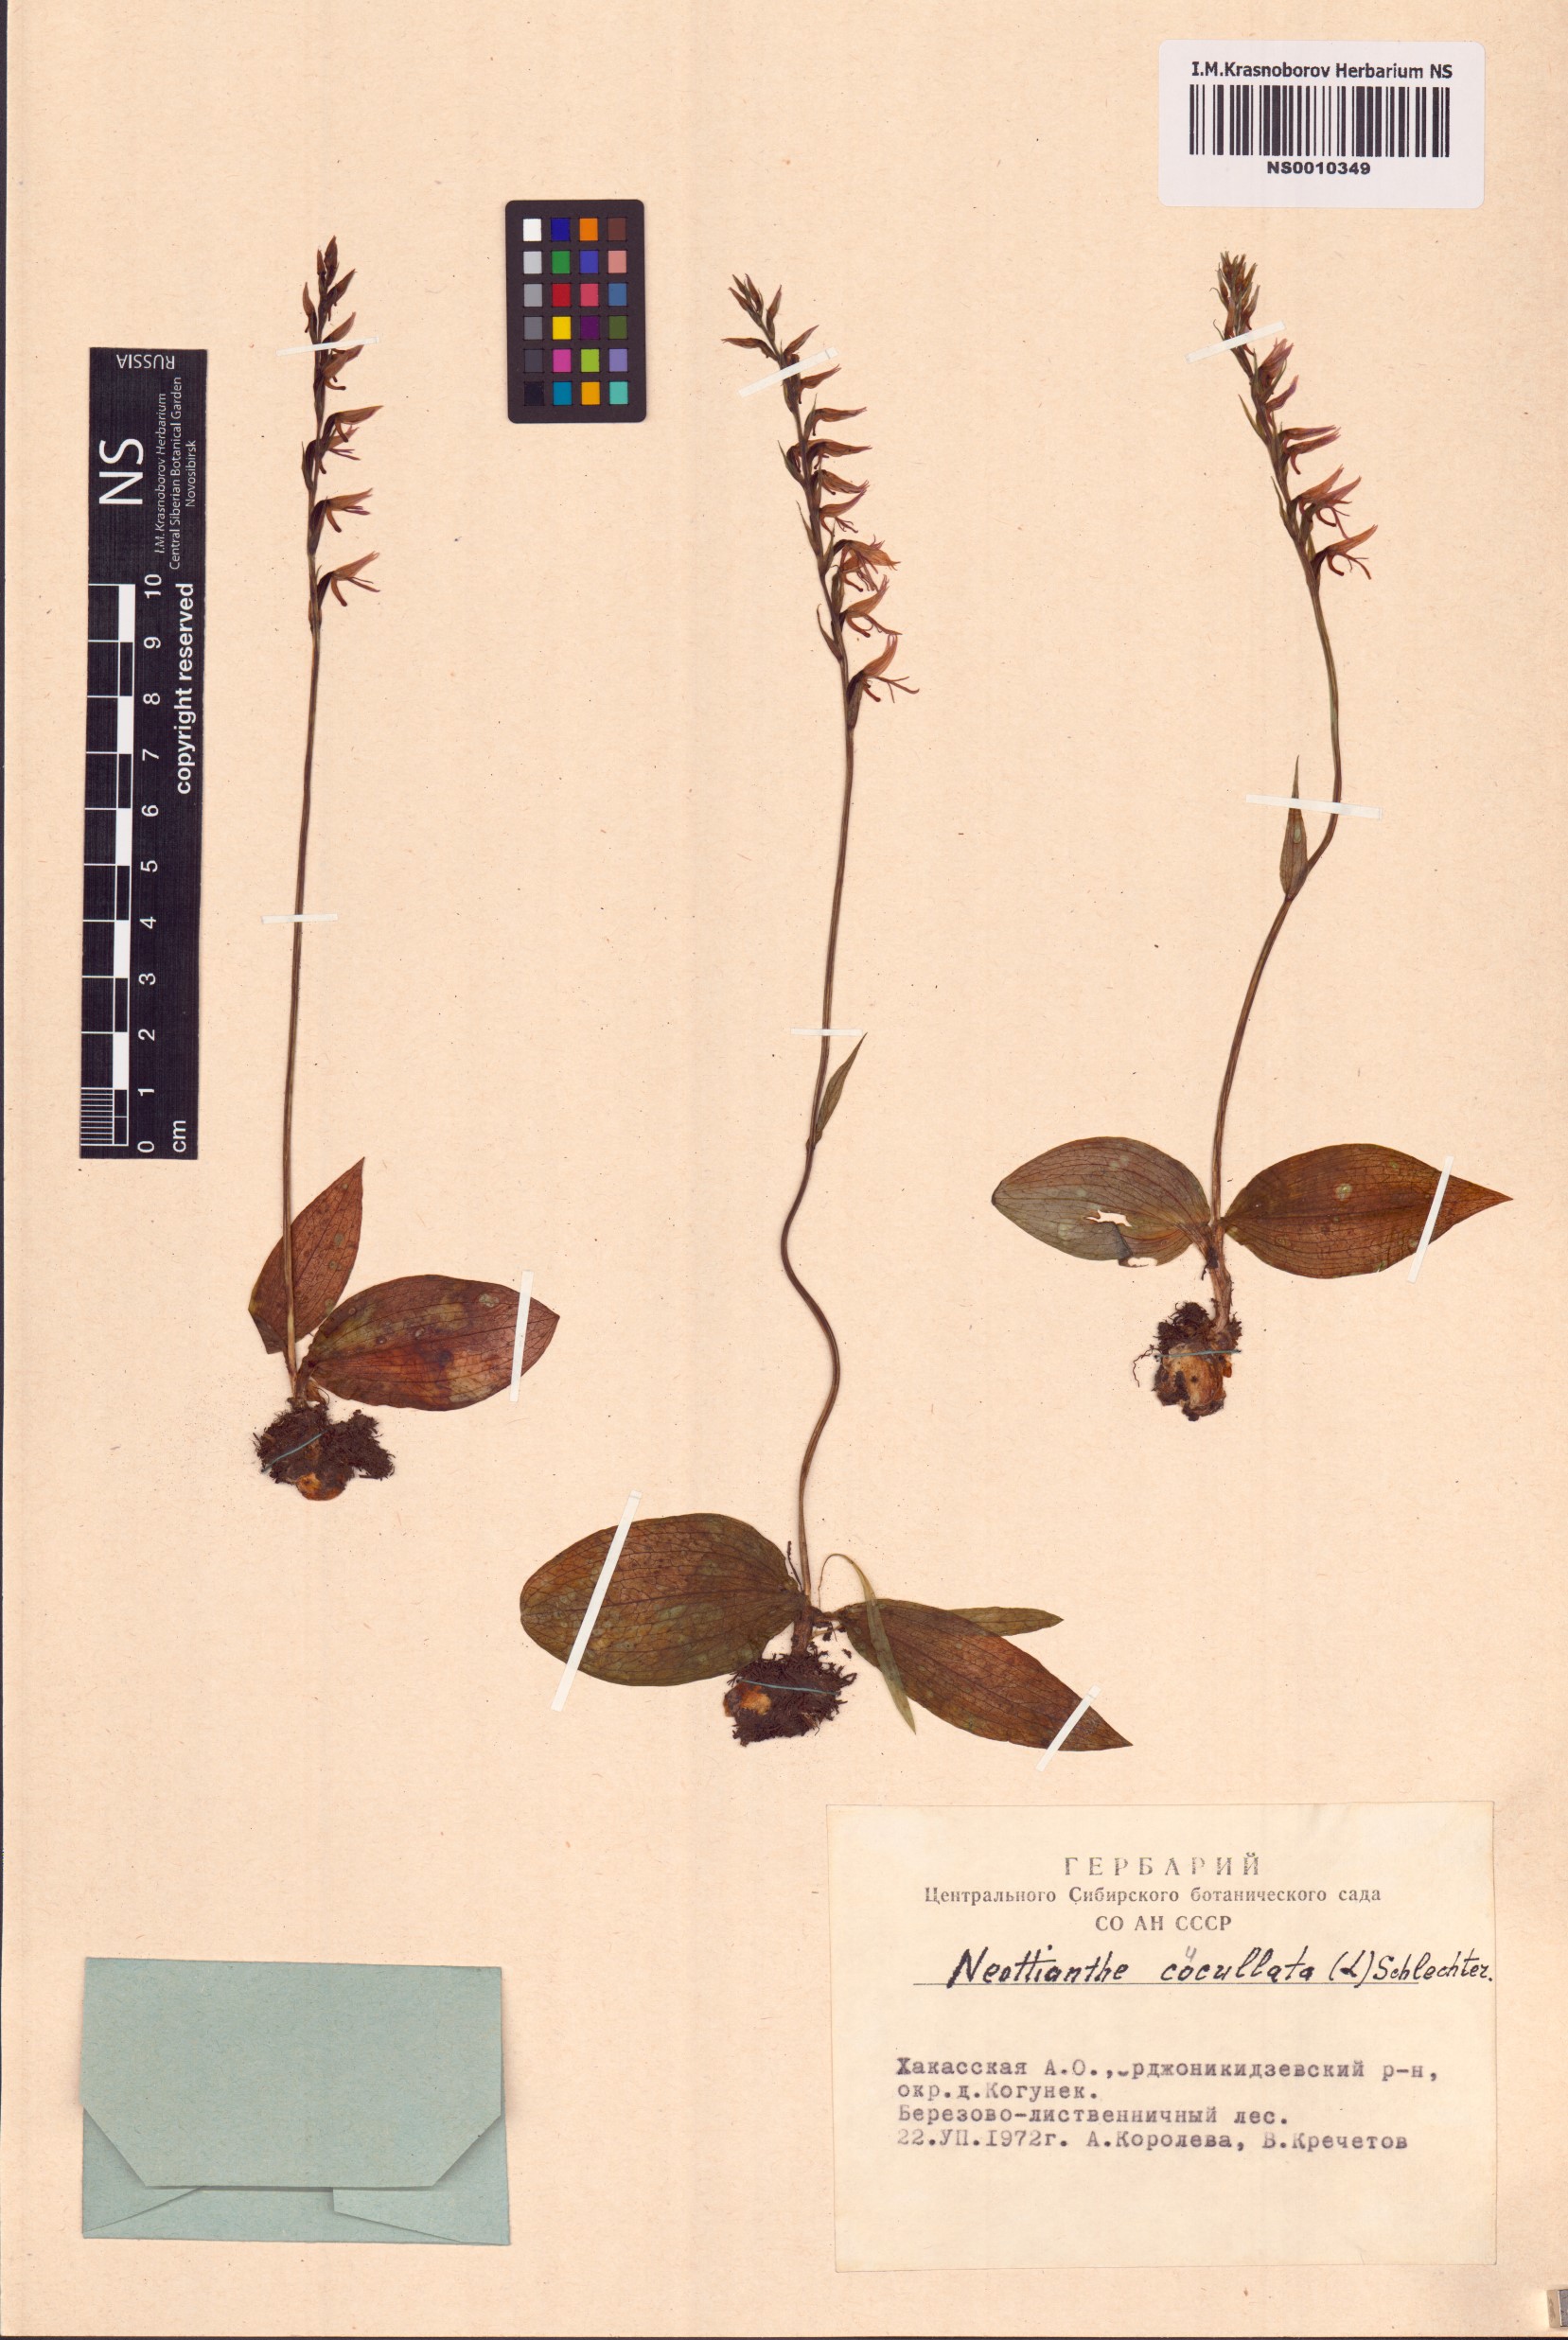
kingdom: Plantae
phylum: Tracheophyta
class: Liliopsida
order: Asparagales
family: Orchidaceae
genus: Hemipilia
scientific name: Hemipilia cucullata
